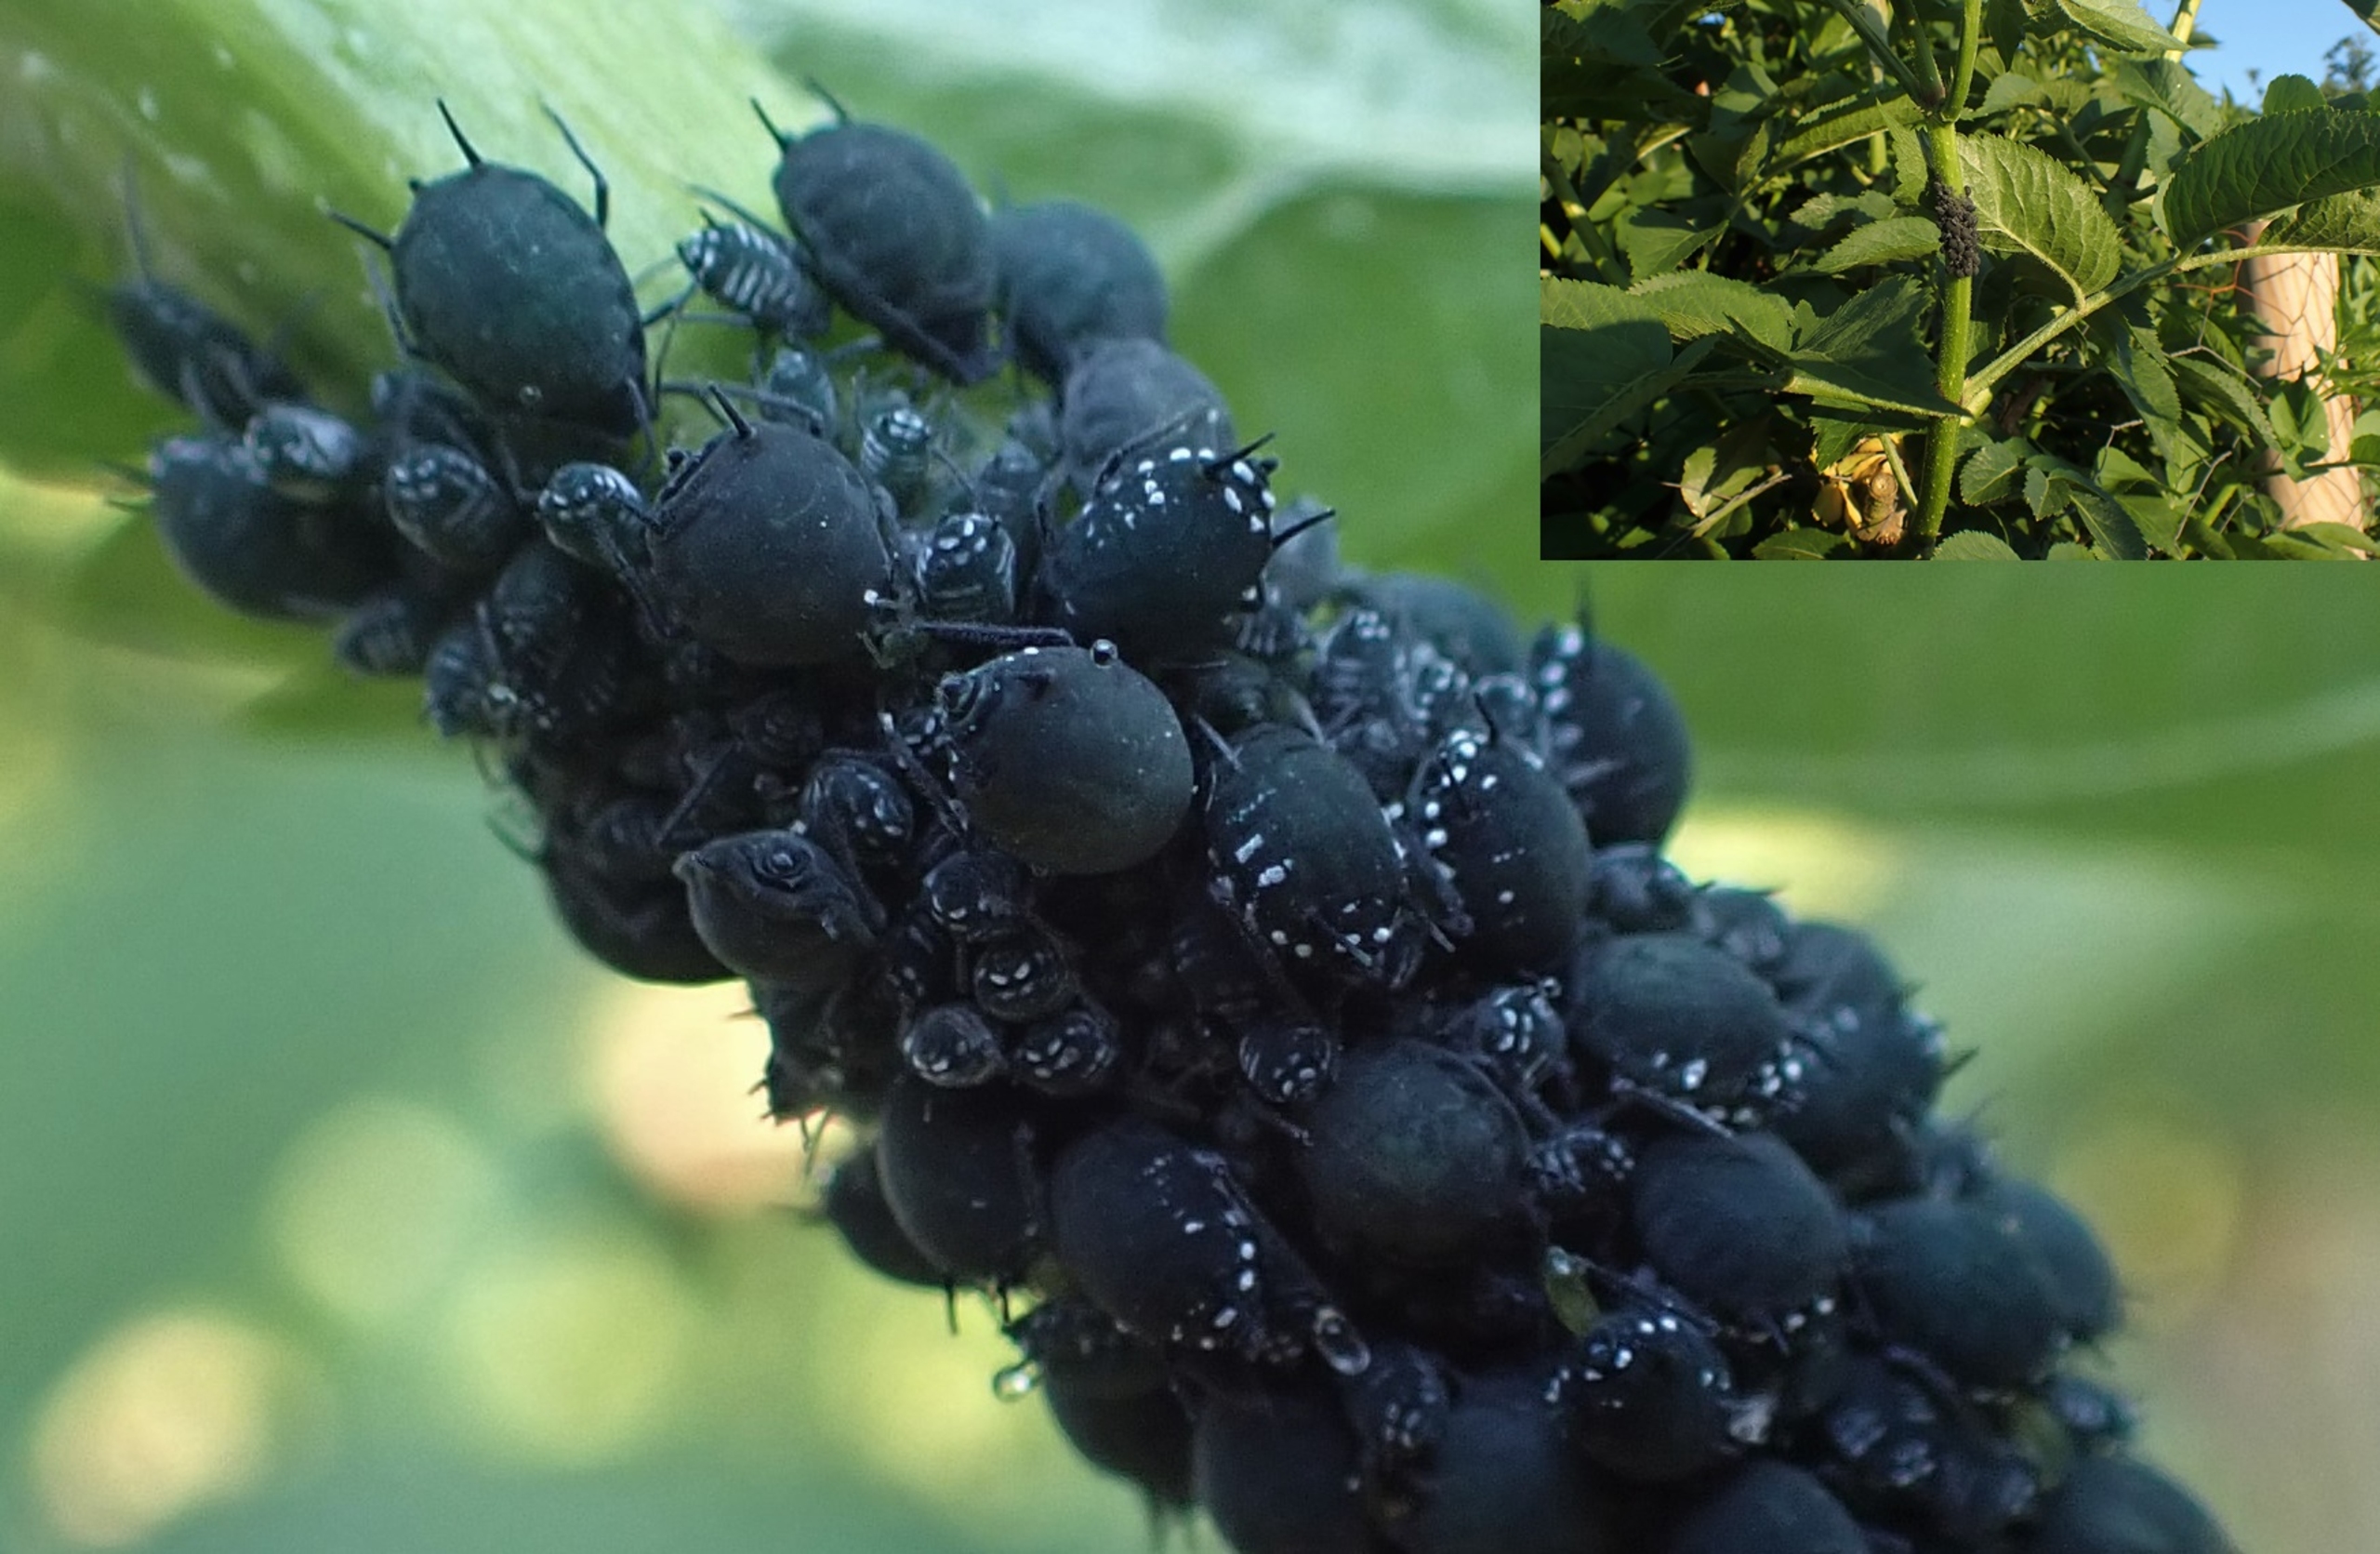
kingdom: Animalia
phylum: Arthropoda
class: Insecta
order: Hemiptera
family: Aphididae
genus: Aphis
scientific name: Aphis sambuci
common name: Hyldebladlus
